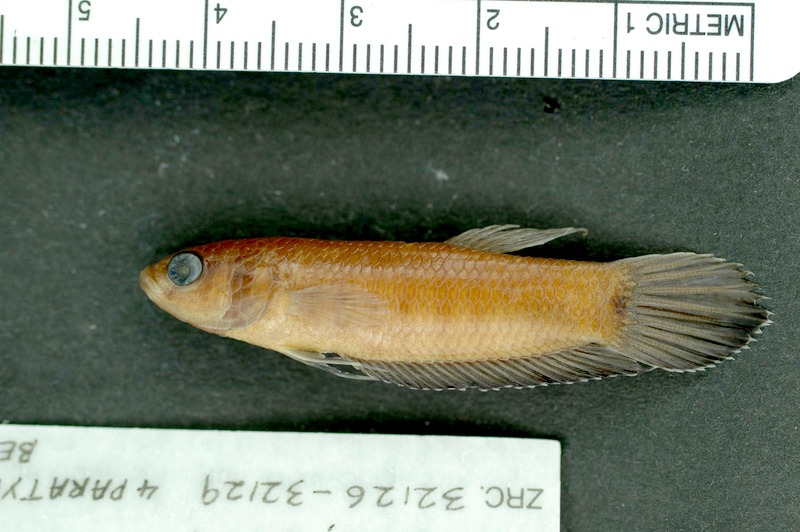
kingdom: Animalia
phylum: Chordata
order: Cypriniformes
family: Cyprinidae
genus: Squalius
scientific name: Squalius cephalus
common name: Chub
